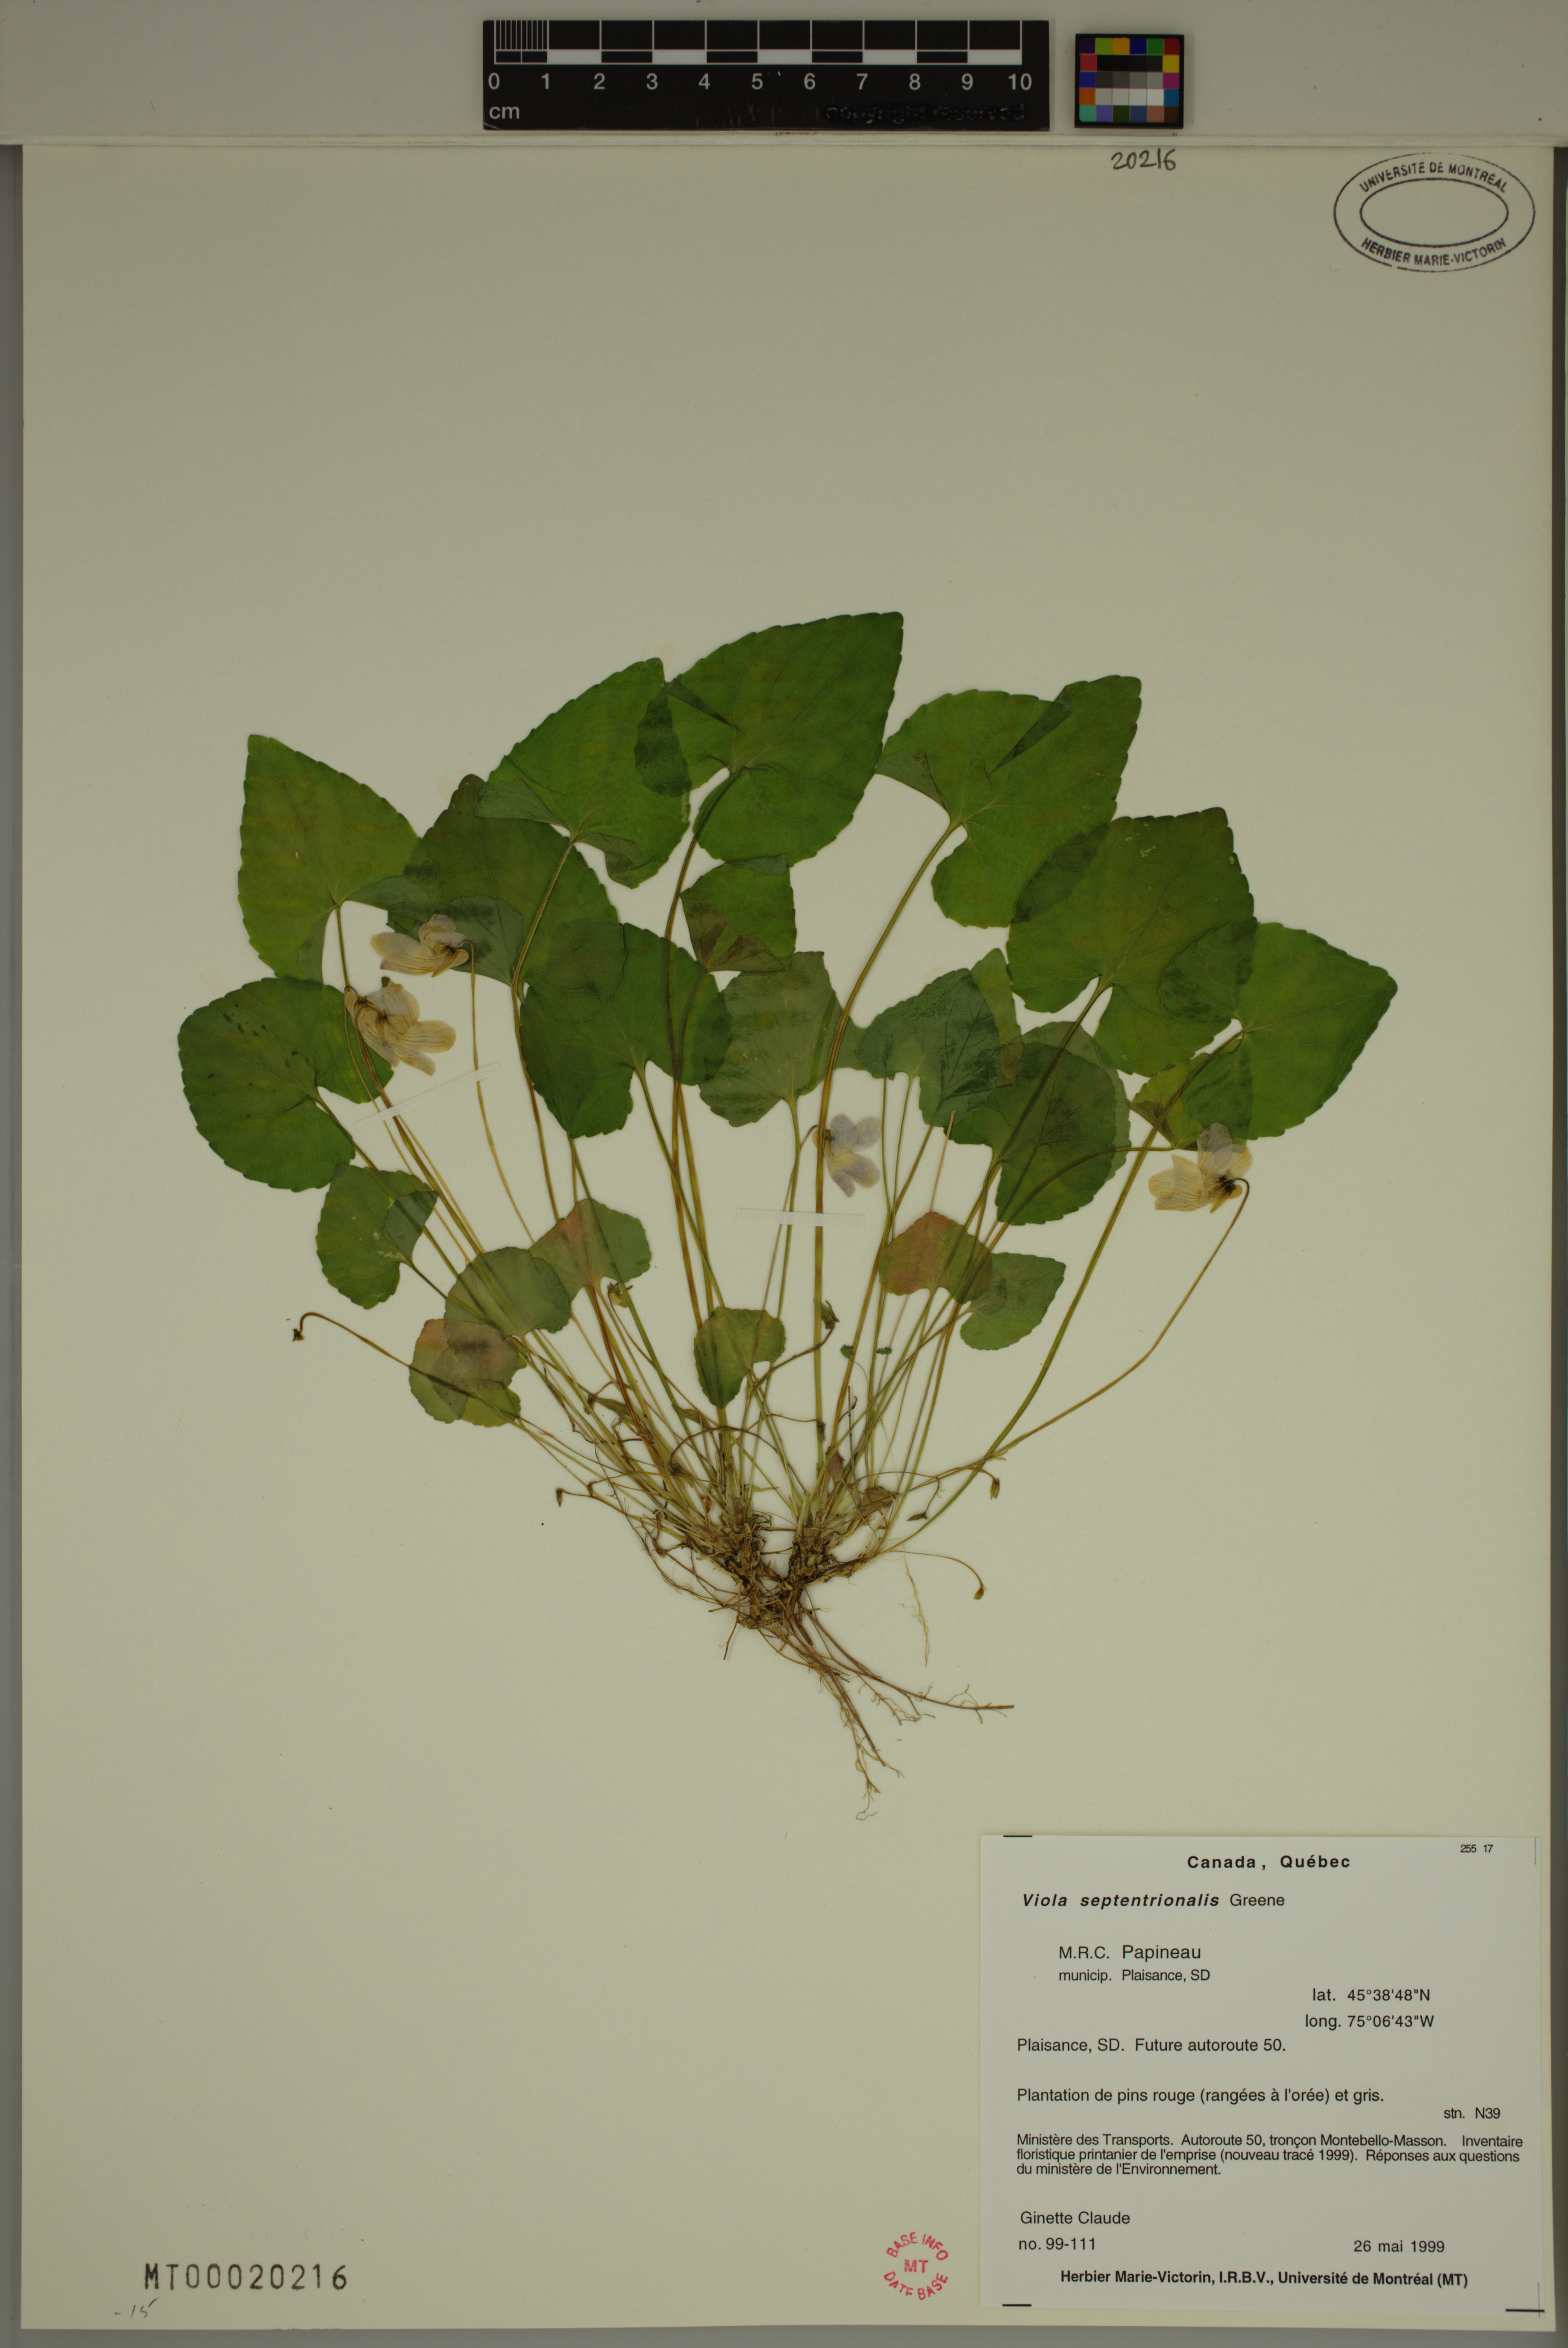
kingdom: Plantae
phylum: Tracheophyta
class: Magnoliopsida
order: Malpighiales
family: Violaceae
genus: Viola
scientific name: Viola sororia
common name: Dooryard violet
